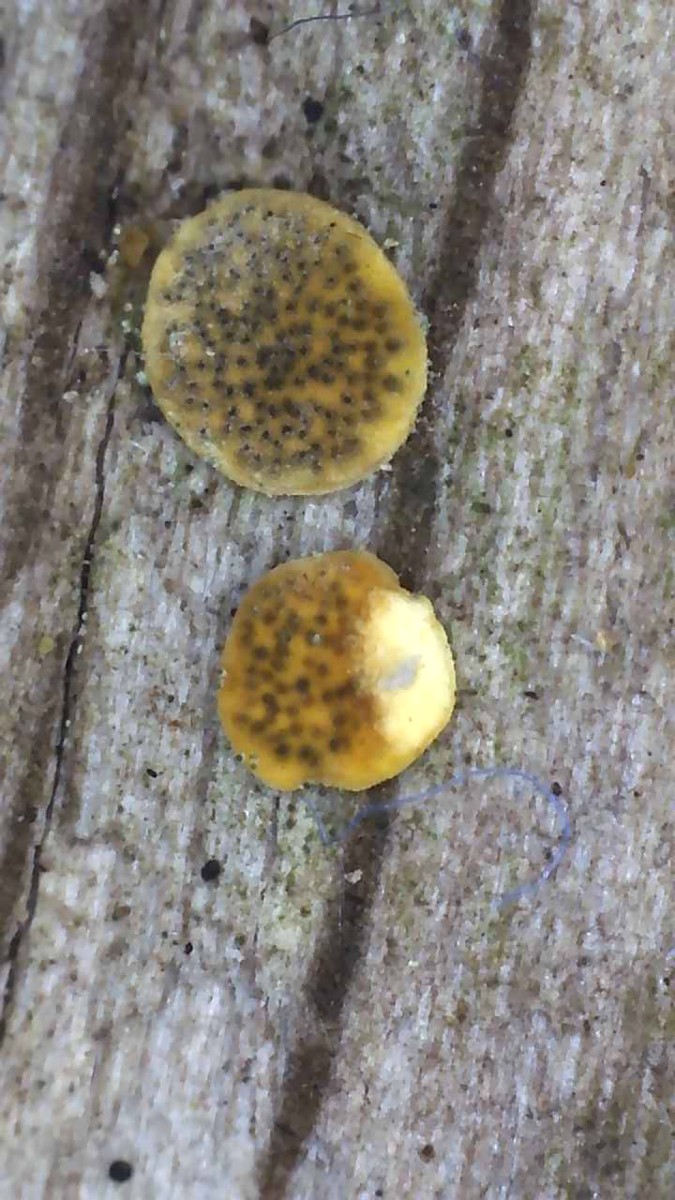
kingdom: Fungi
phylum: Ascomycota
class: Sordariomycetes
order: Hypocreales
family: Hypocreaceae
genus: Trichoderma
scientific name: Trichoderma aureoviride
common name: æggegul kødkerne
